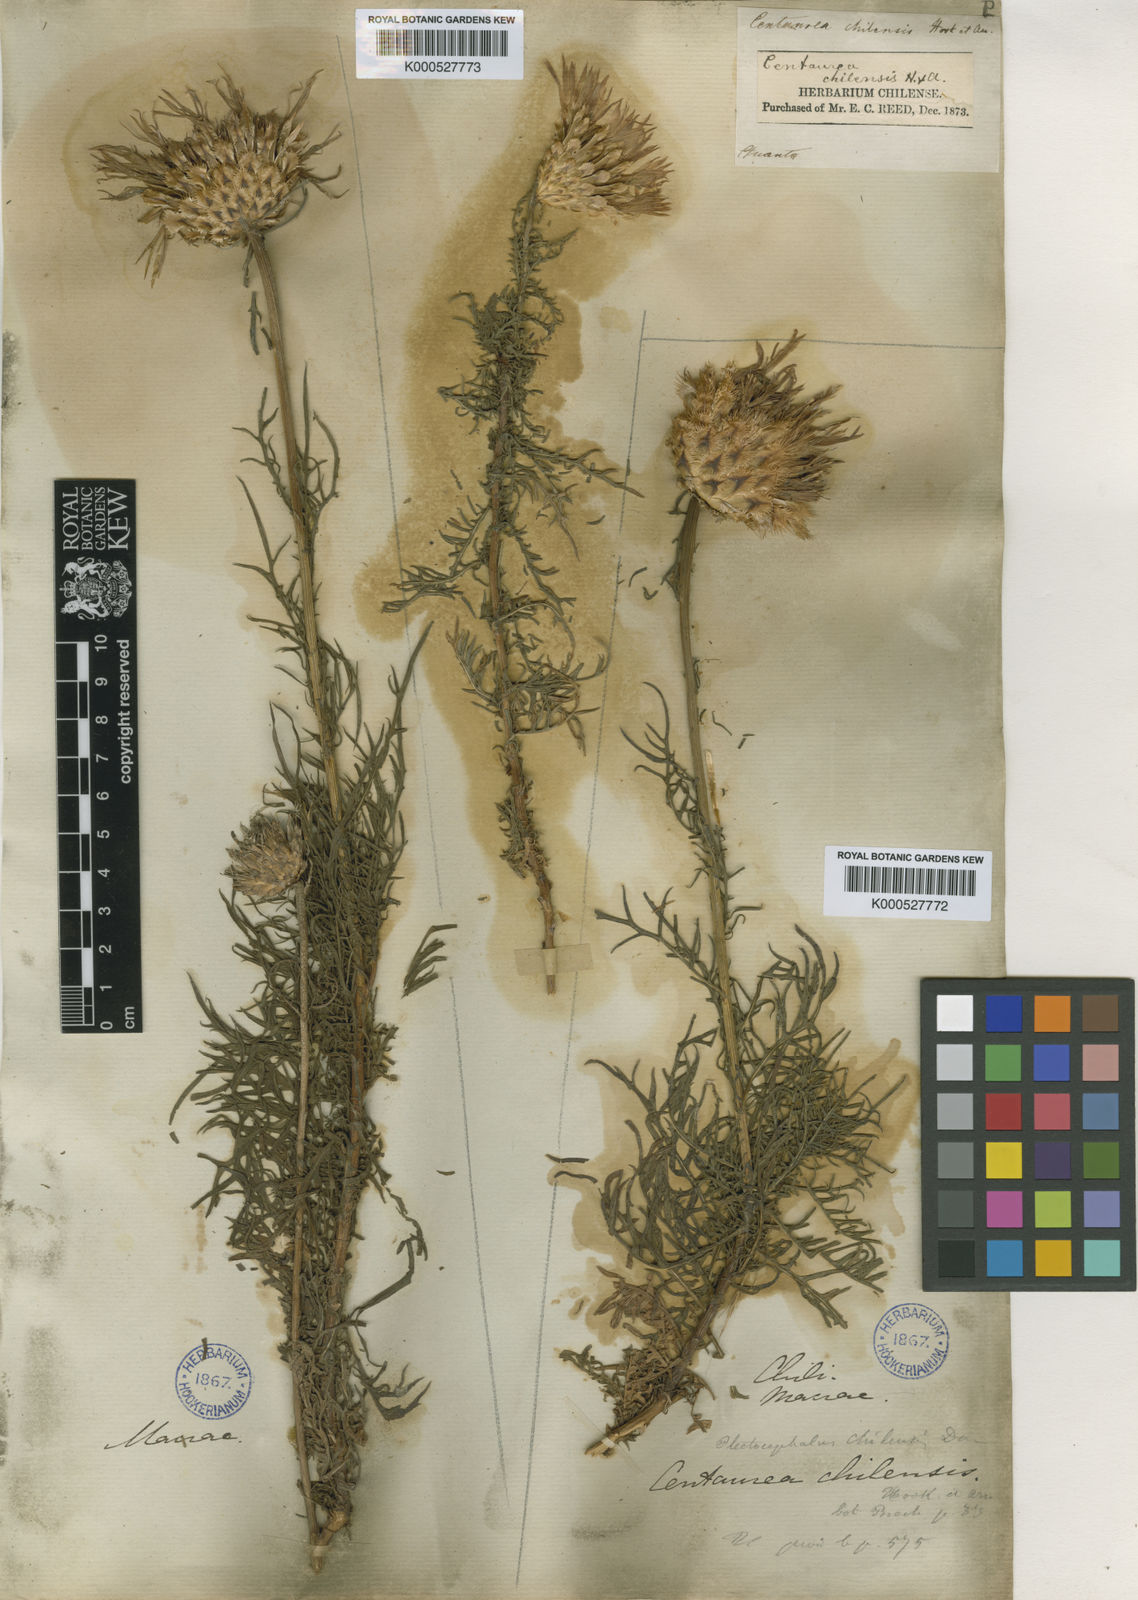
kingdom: Plantae
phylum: Tracheophyta
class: Magnoliopsida
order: Asterales
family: Asteraceae
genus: Plectocephalus
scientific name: Plectocephalus chilensis
